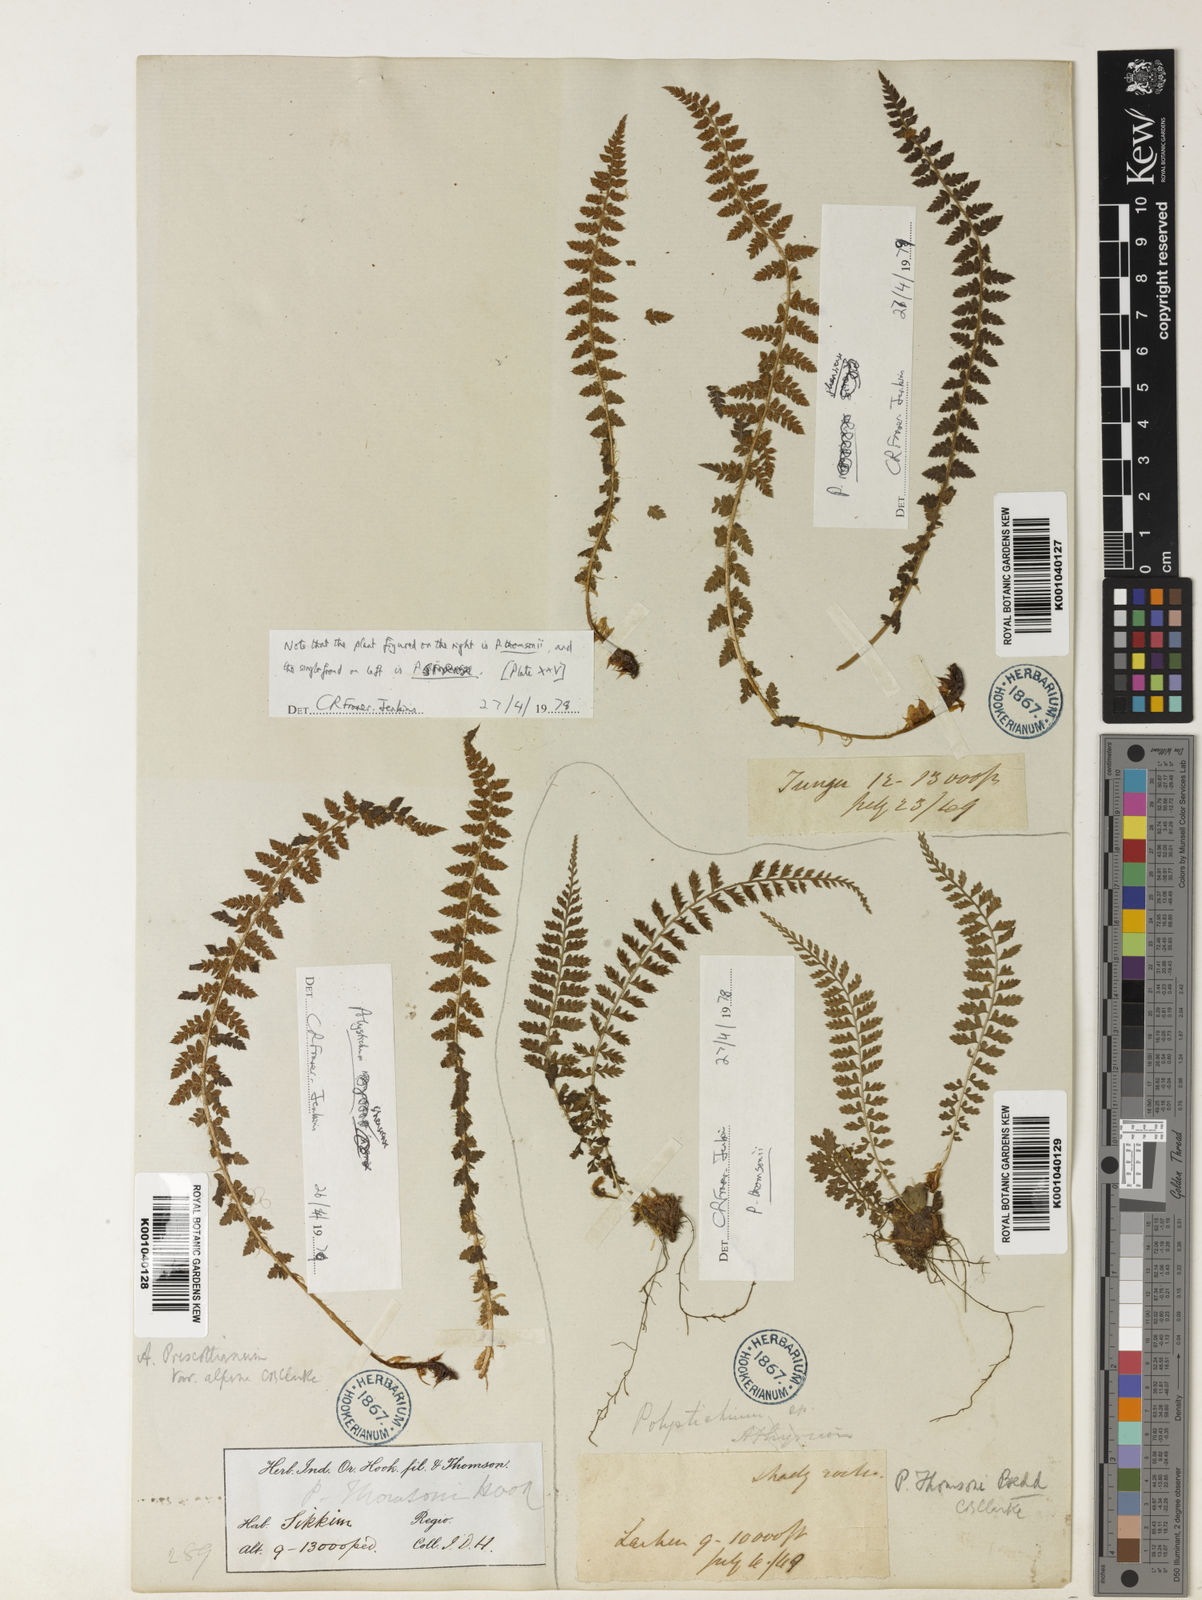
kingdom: Plantae
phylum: Tracheophyta
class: Polypodiopsida
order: Polypodiales
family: Dryopteridaceae
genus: Polystichum
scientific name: Polystichum thomsonii
